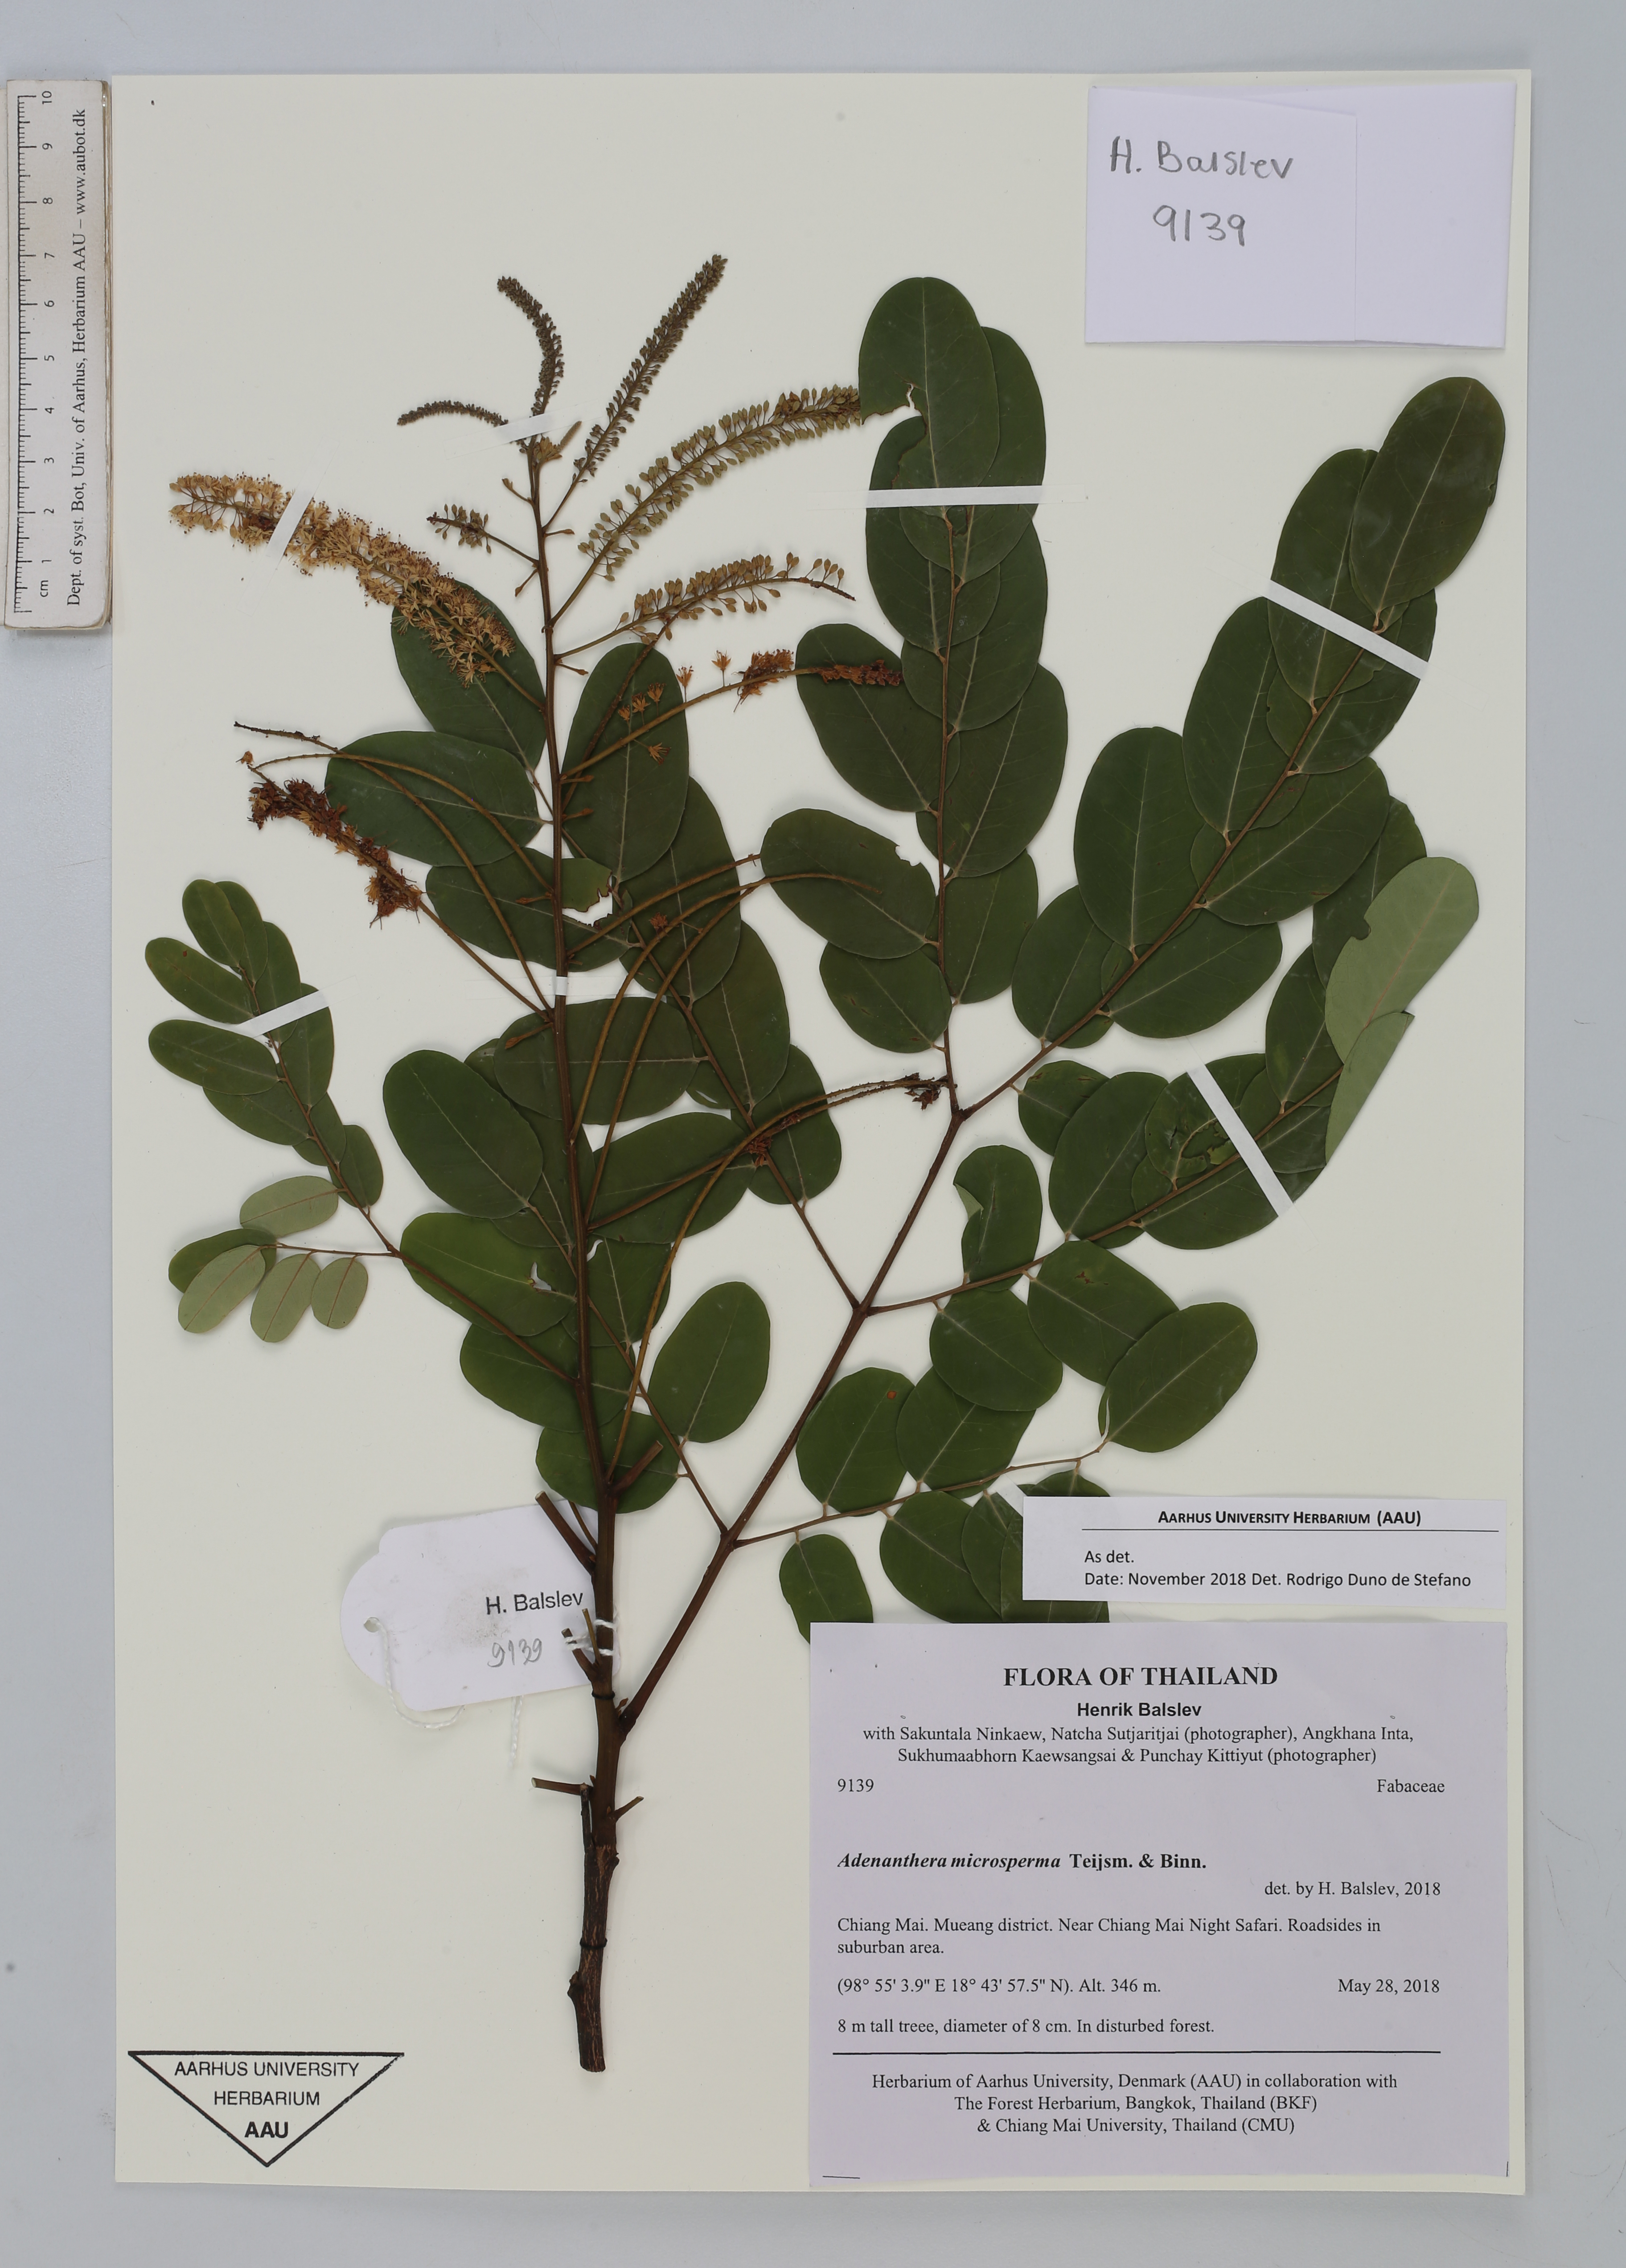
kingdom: Plantae
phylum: Tracheophyta
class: Magnoliopsida
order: Fabales
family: Fabaceae
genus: Adenanthera
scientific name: Adenanthera microsperma
